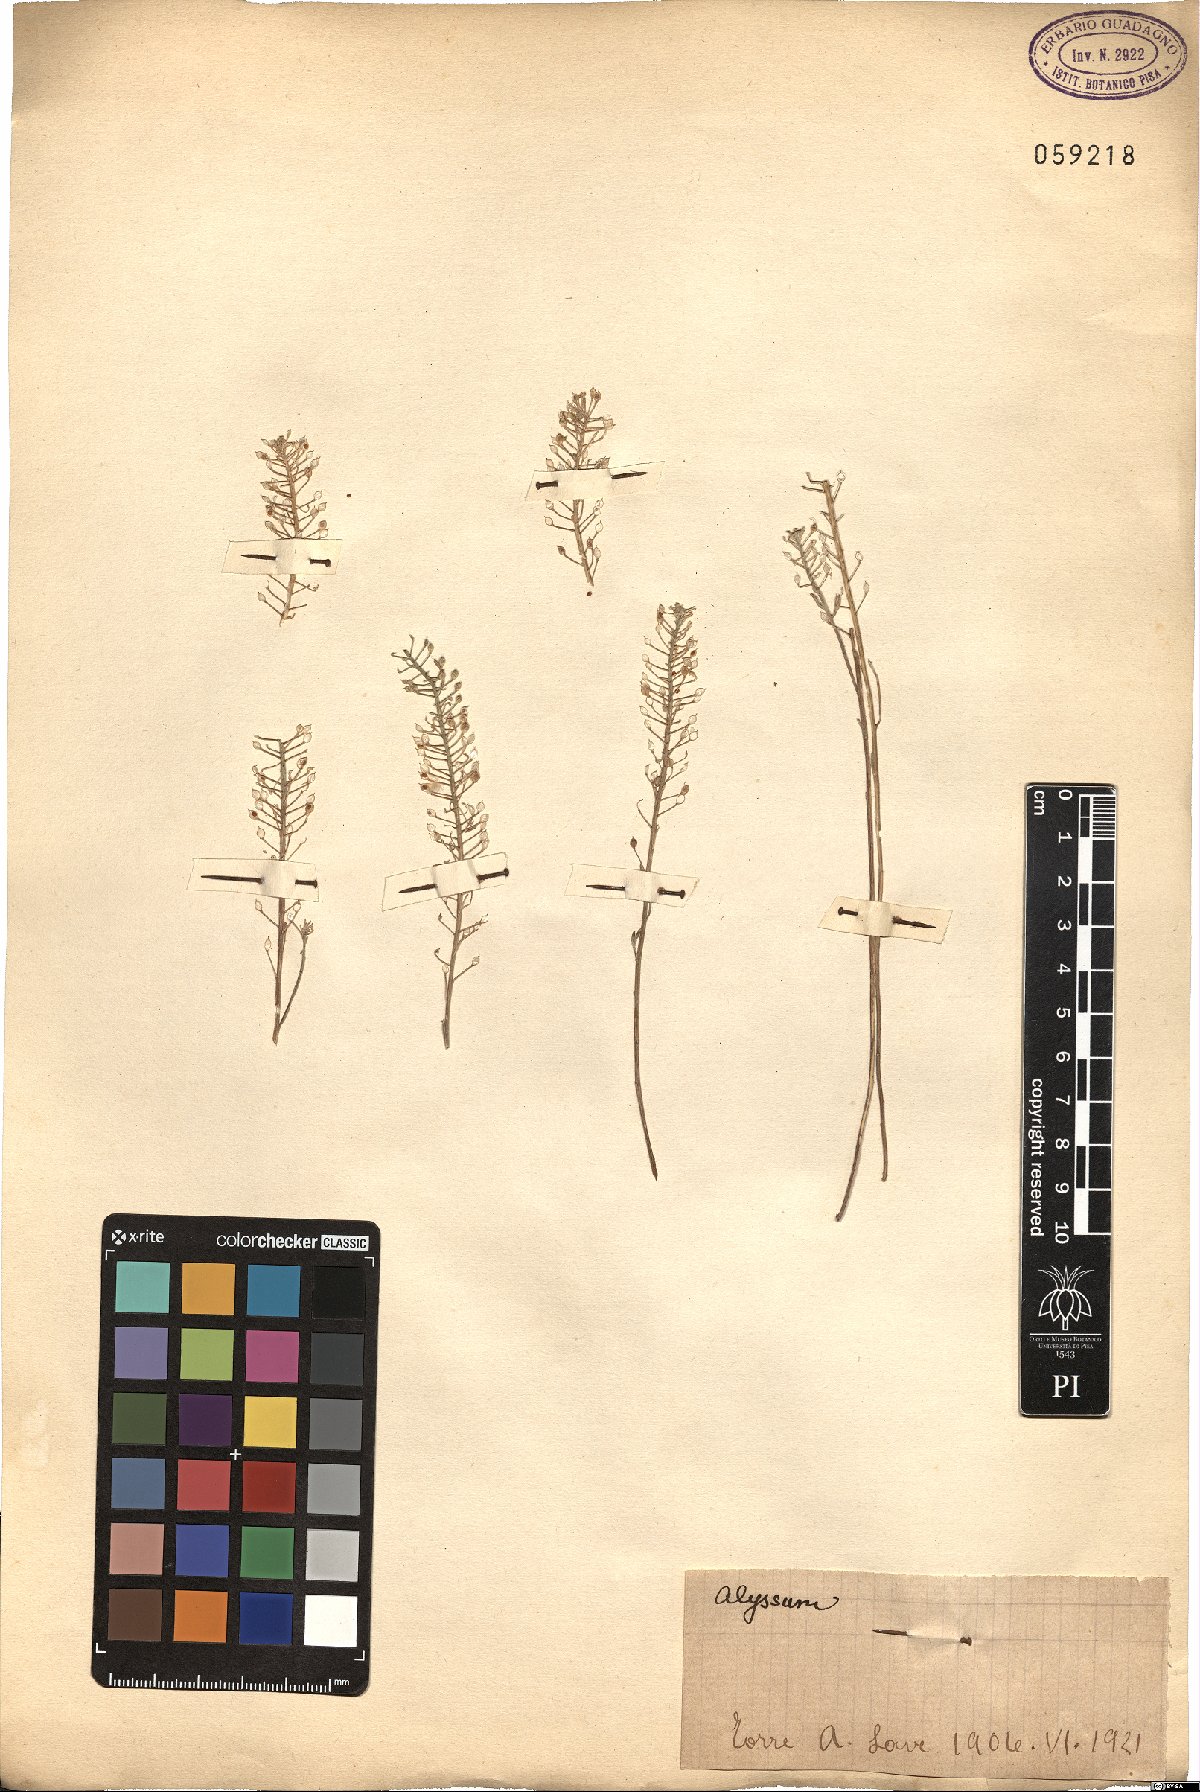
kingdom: Plantae
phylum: Tracheophyta
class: Magnoliopsida
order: Brassicales
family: Brassicaceae
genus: Alyssum
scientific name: Alyssum
